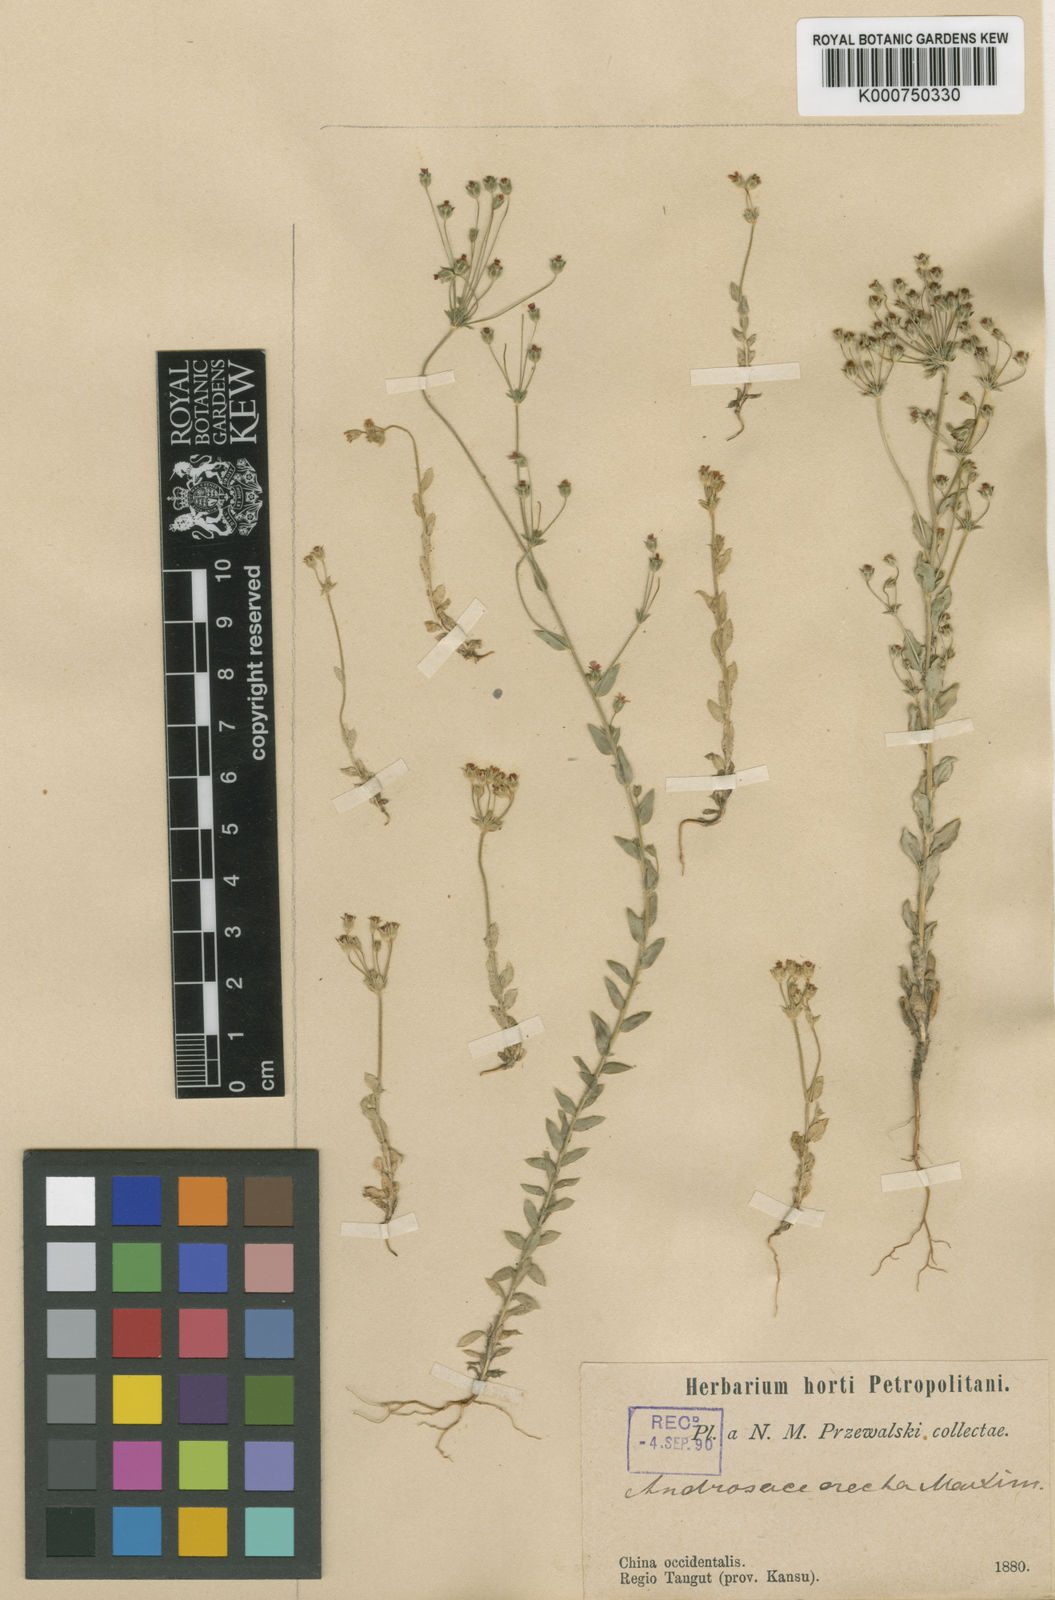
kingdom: Plantae
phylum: Tracheophyta
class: Magnoliopsida
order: Ericales
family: Primulaceae
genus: Androsace
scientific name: Androsace erecta
